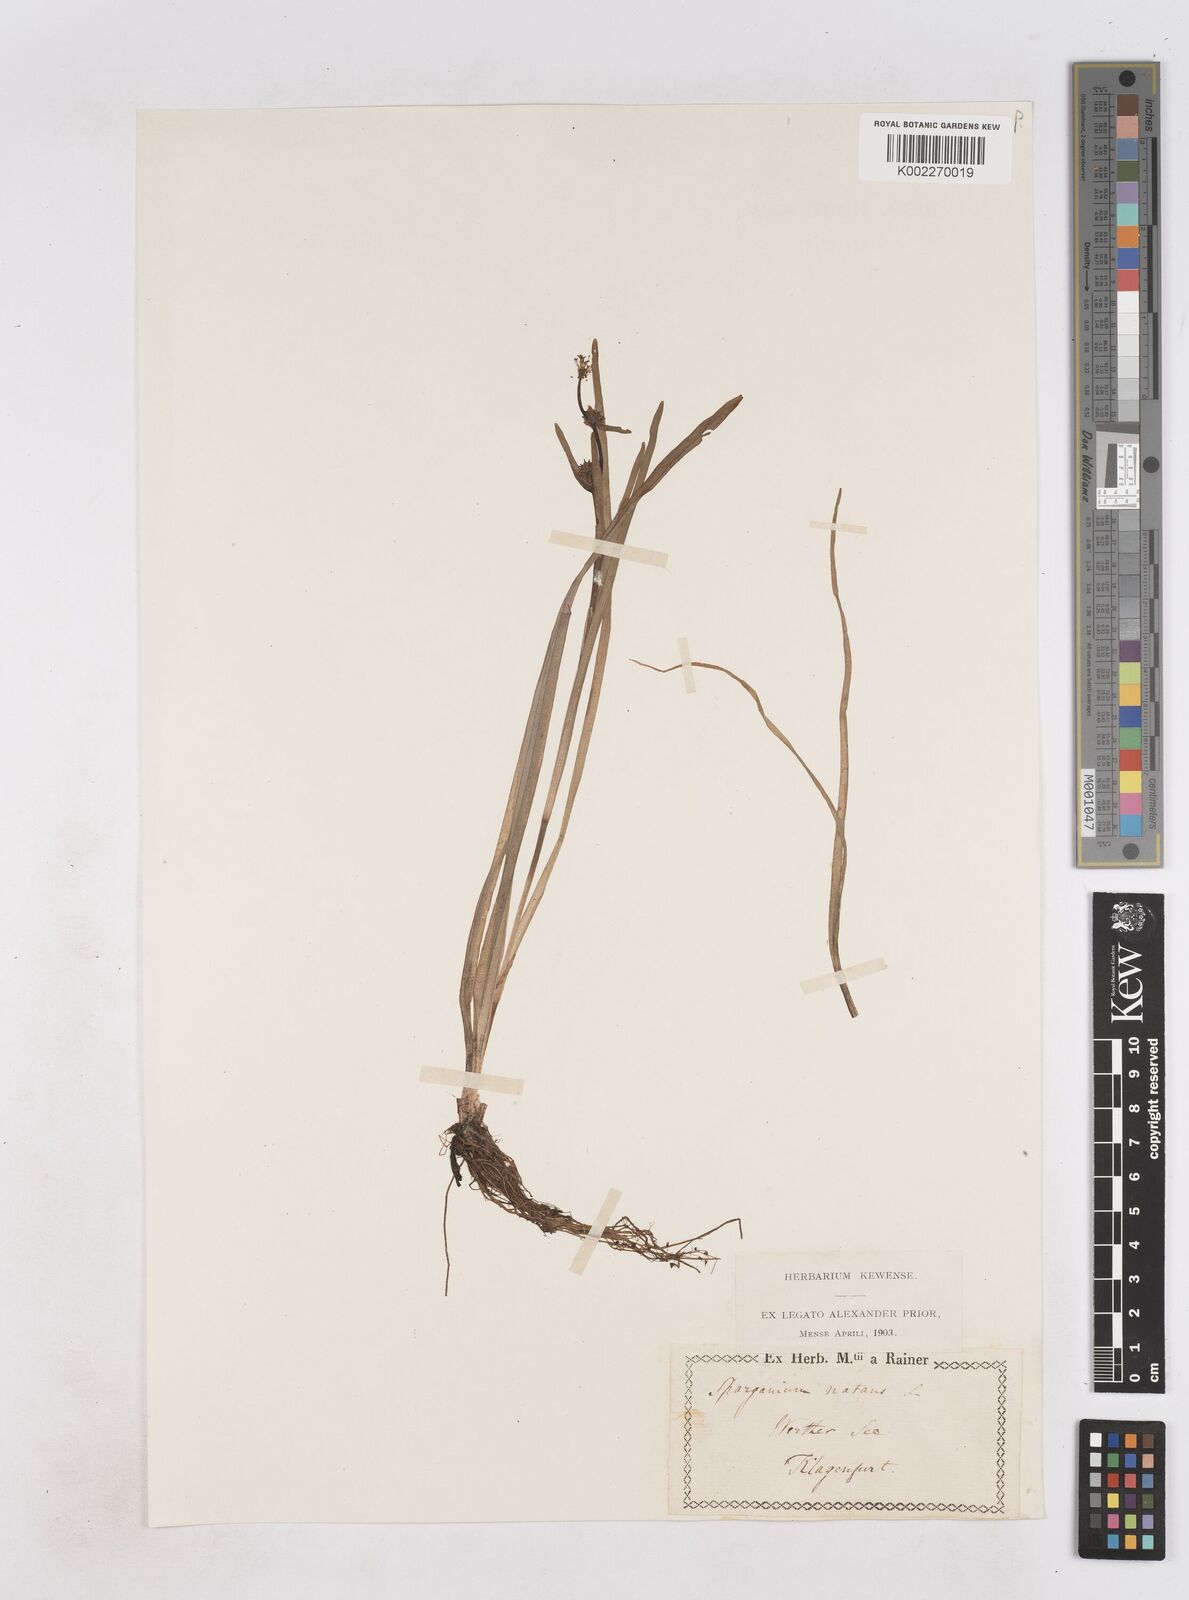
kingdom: Plantae
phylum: Tracheophyta
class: Liliopsida
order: Poales
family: Typhaceae
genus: Sparganium
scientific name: Sparganium gramineum
